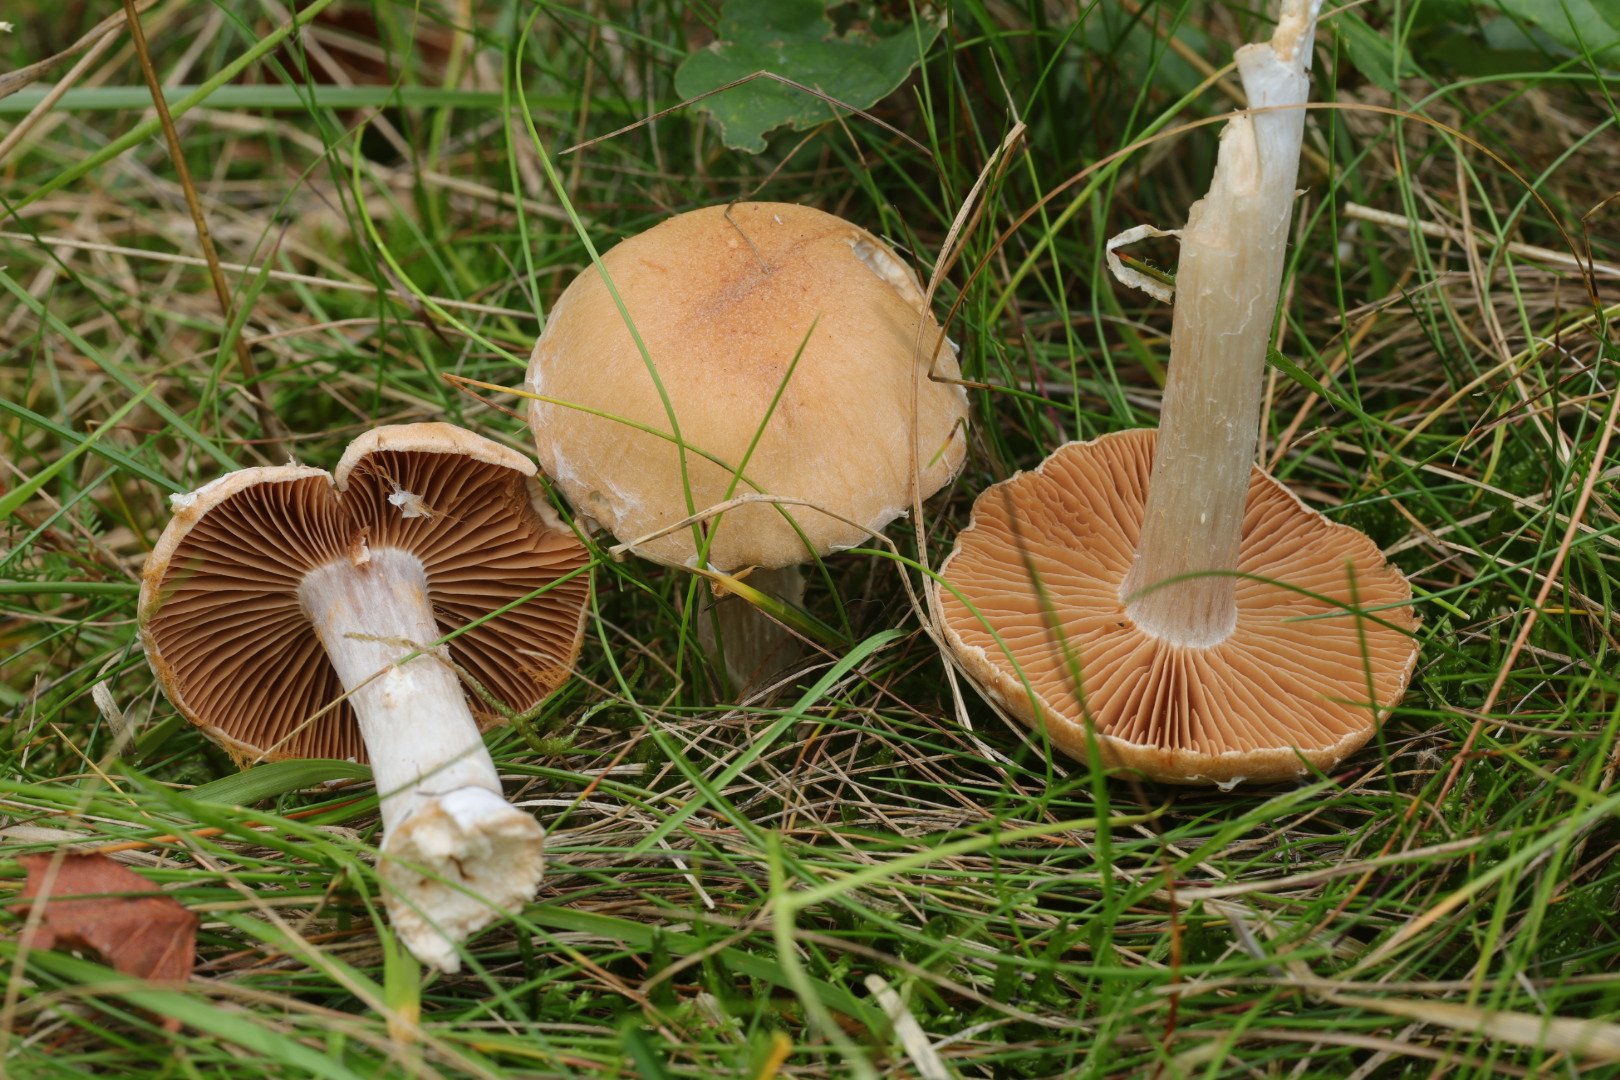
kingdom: Fungi
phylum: Basidiomycota
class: Agaricomycetes
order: Agaricales
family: Cortinariaceae
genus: Cortinarius
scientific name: Cortinarius
